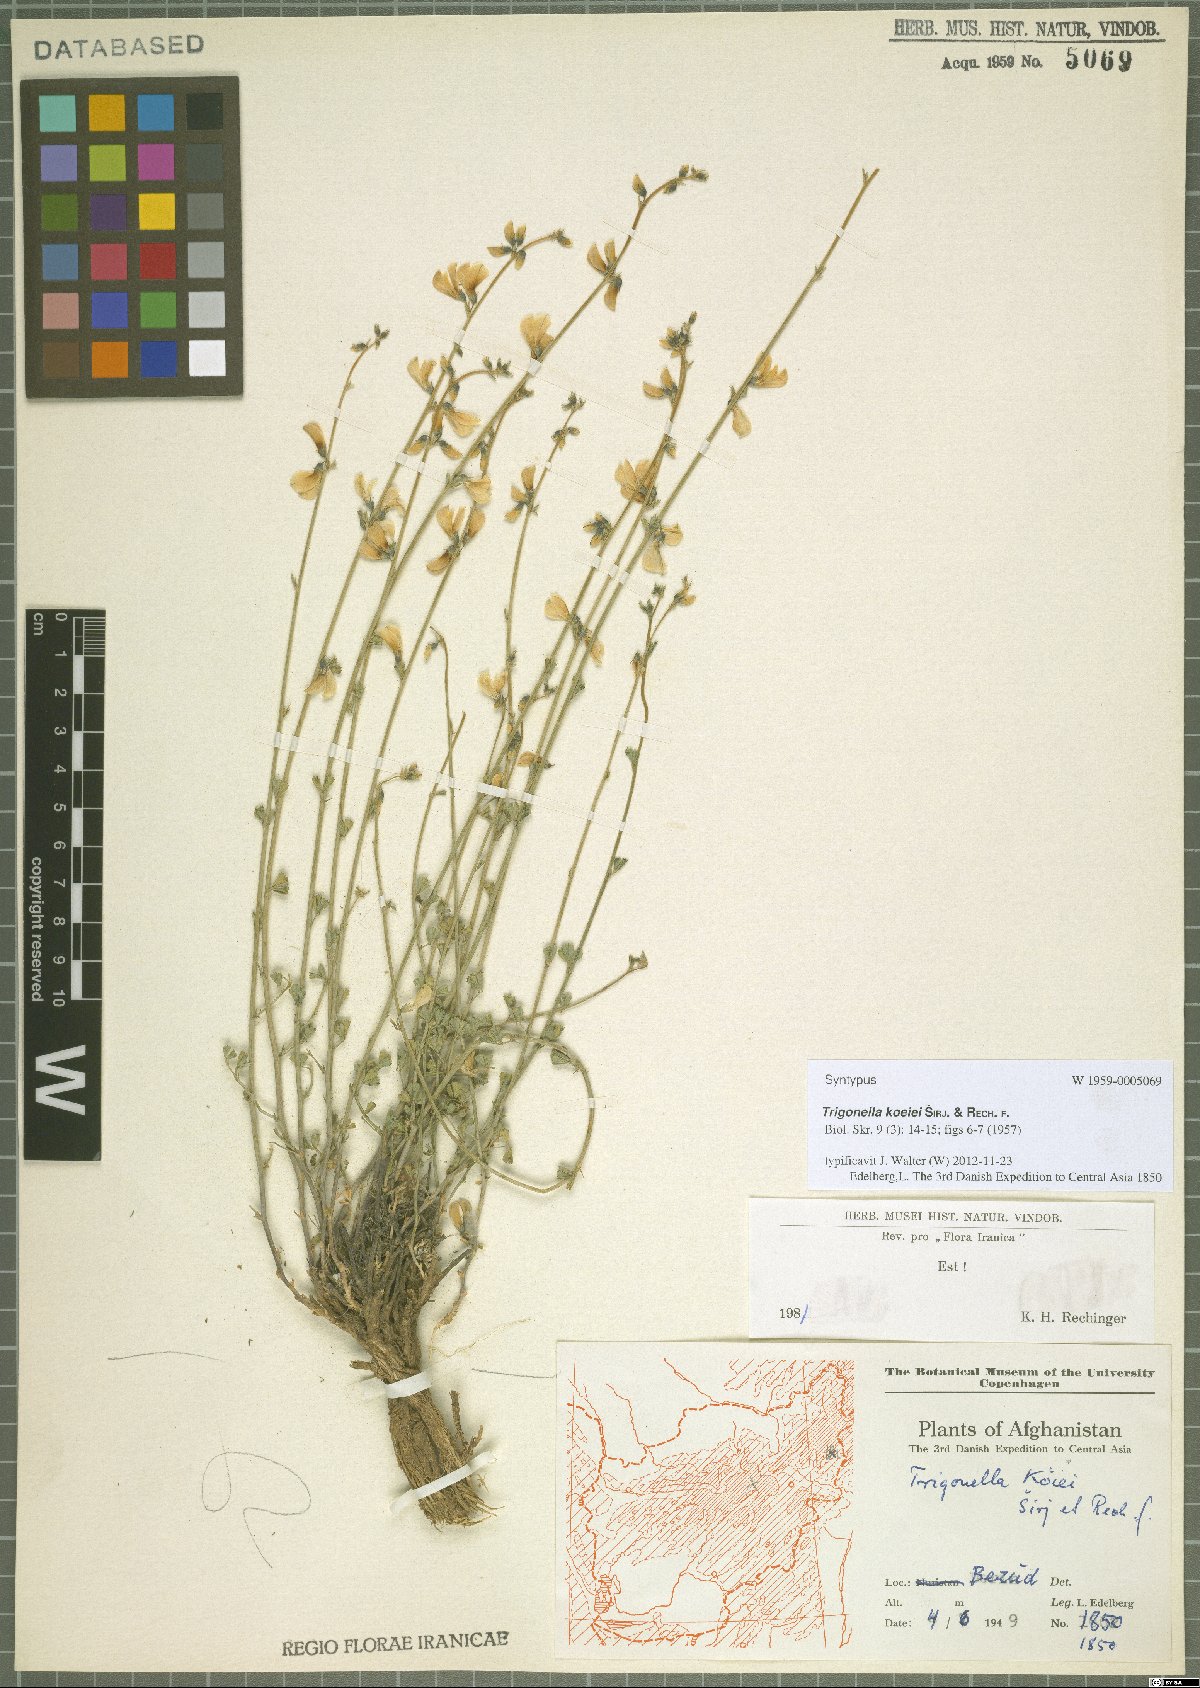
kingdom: Plantae
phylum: Tracheophyta
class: Magnoliopsida
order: Fabales
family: Fabaceae
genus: Trigonella
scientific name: Trigonella koeiei
